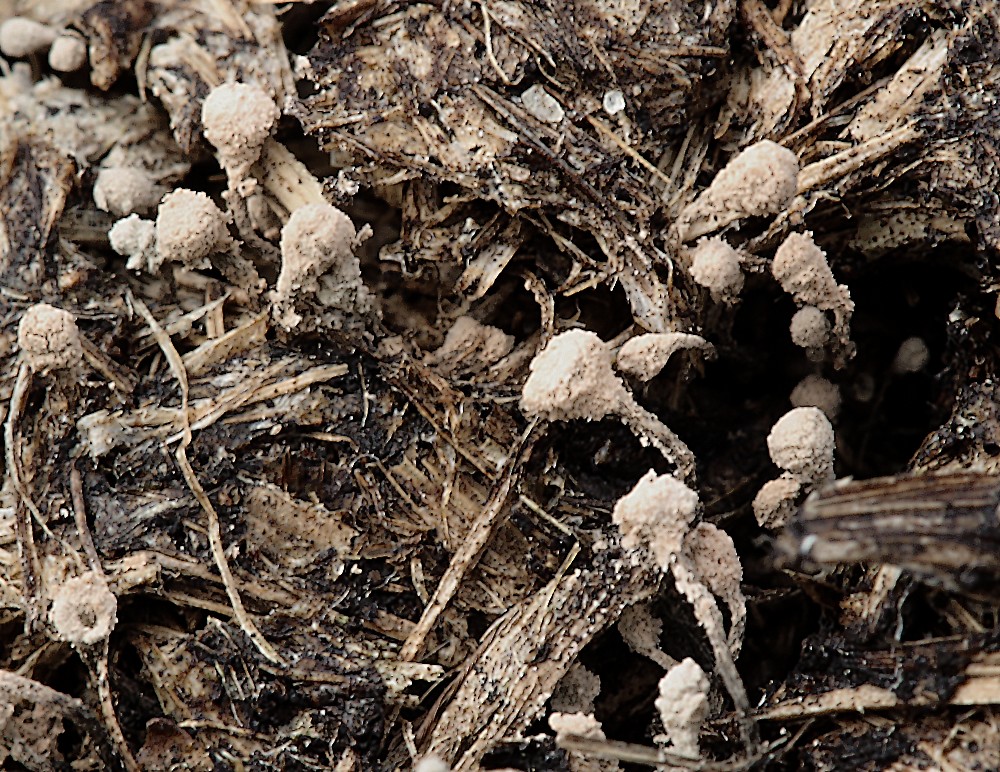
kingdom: Fungi
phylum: Ascomycota
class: Sordariomycetes
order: Xylariales
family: Xylariaceae
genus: Poronia
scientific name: Poronia punctata
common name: stor priksvamp
